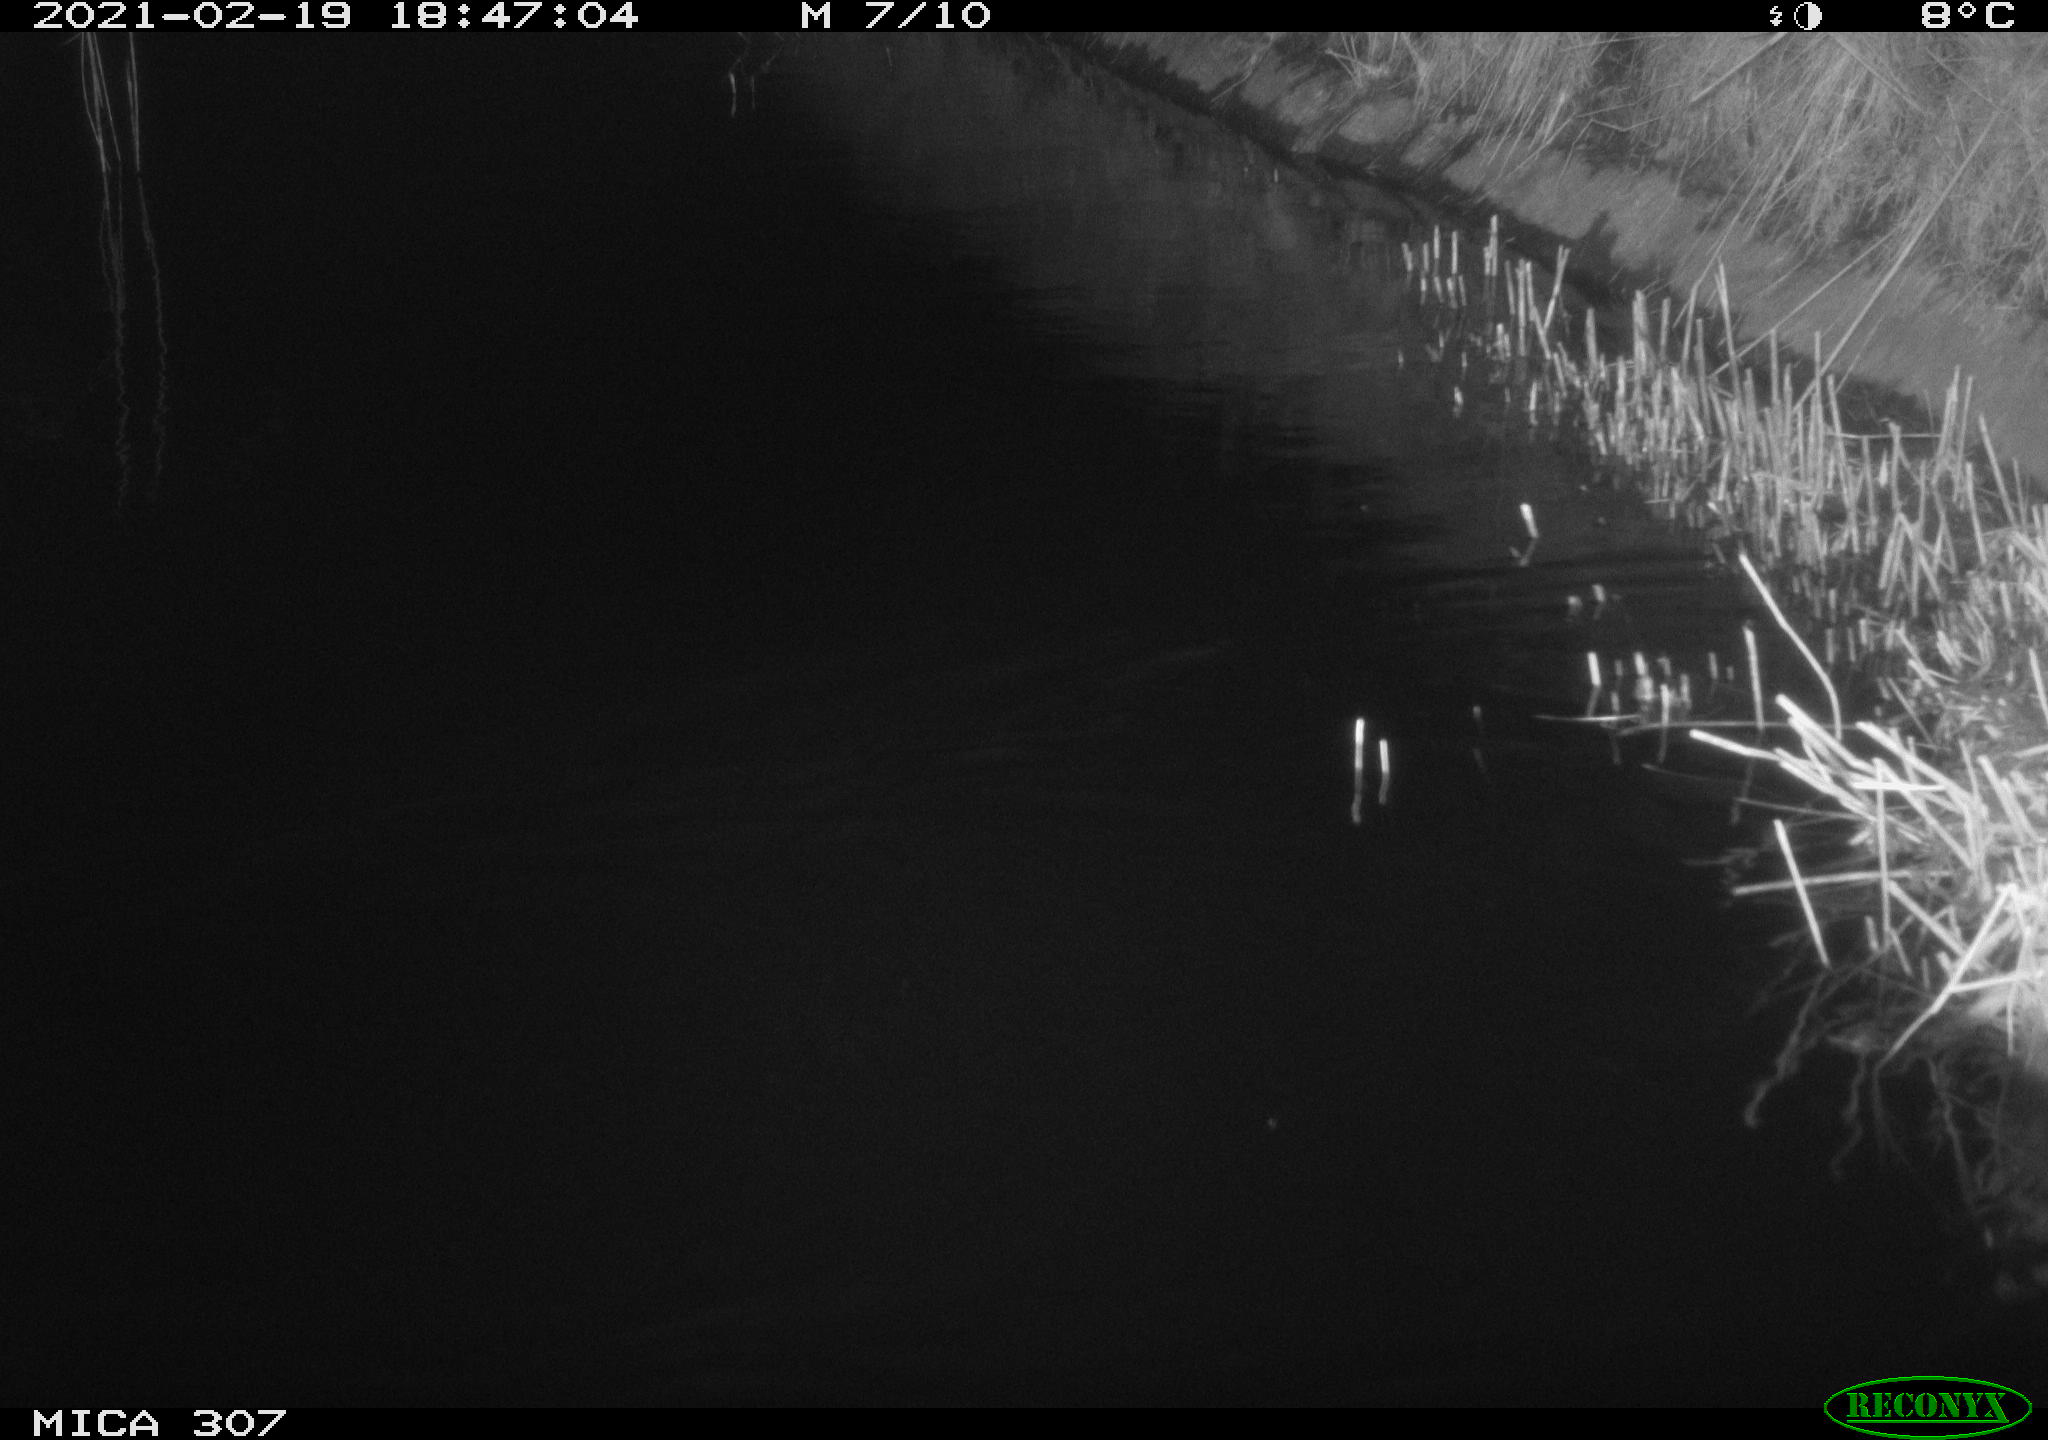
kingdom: Animalia
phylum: Chordata
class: Mammalia
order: Rodentia
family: Muridae
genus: Rattus
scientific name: Rattus norvegicus
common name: Brown rat
